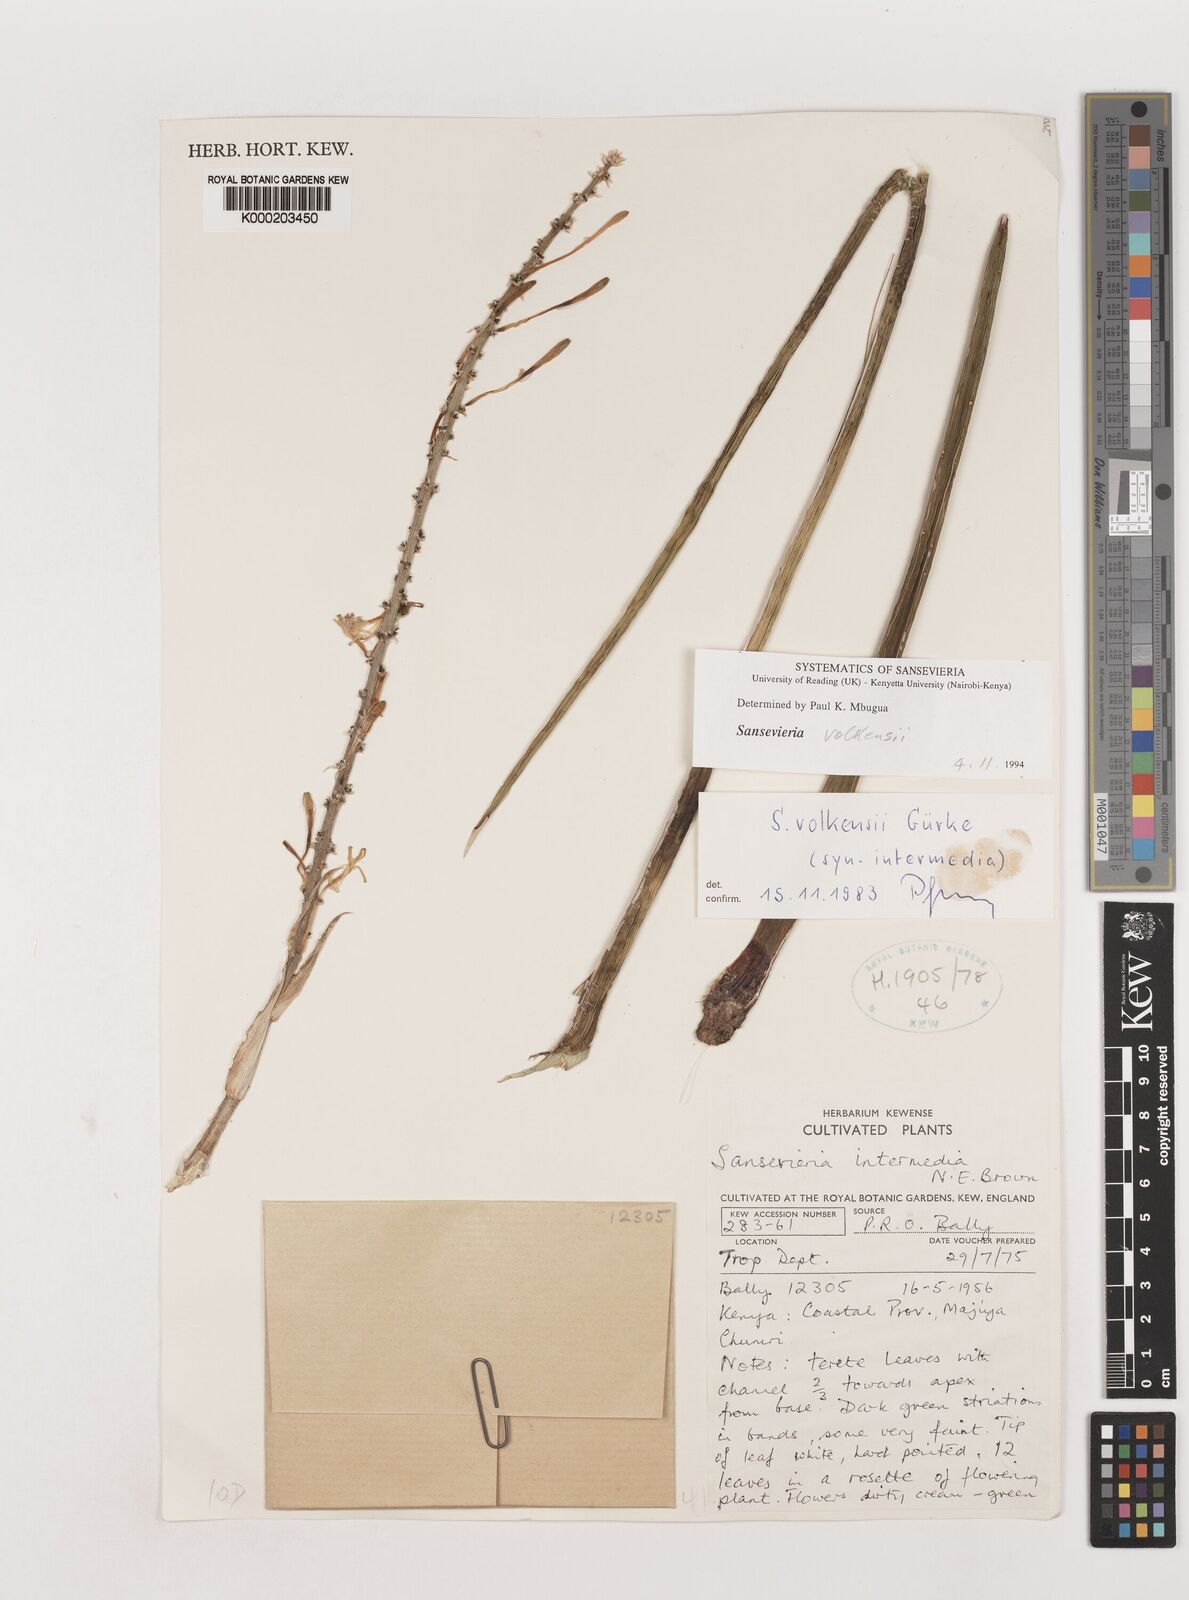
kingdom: Plantae
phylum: Tracheophyta
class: Liliopsida
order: Asparagales
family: Asparagaceae
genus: Dracaena
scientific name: Dracaena volkensii
